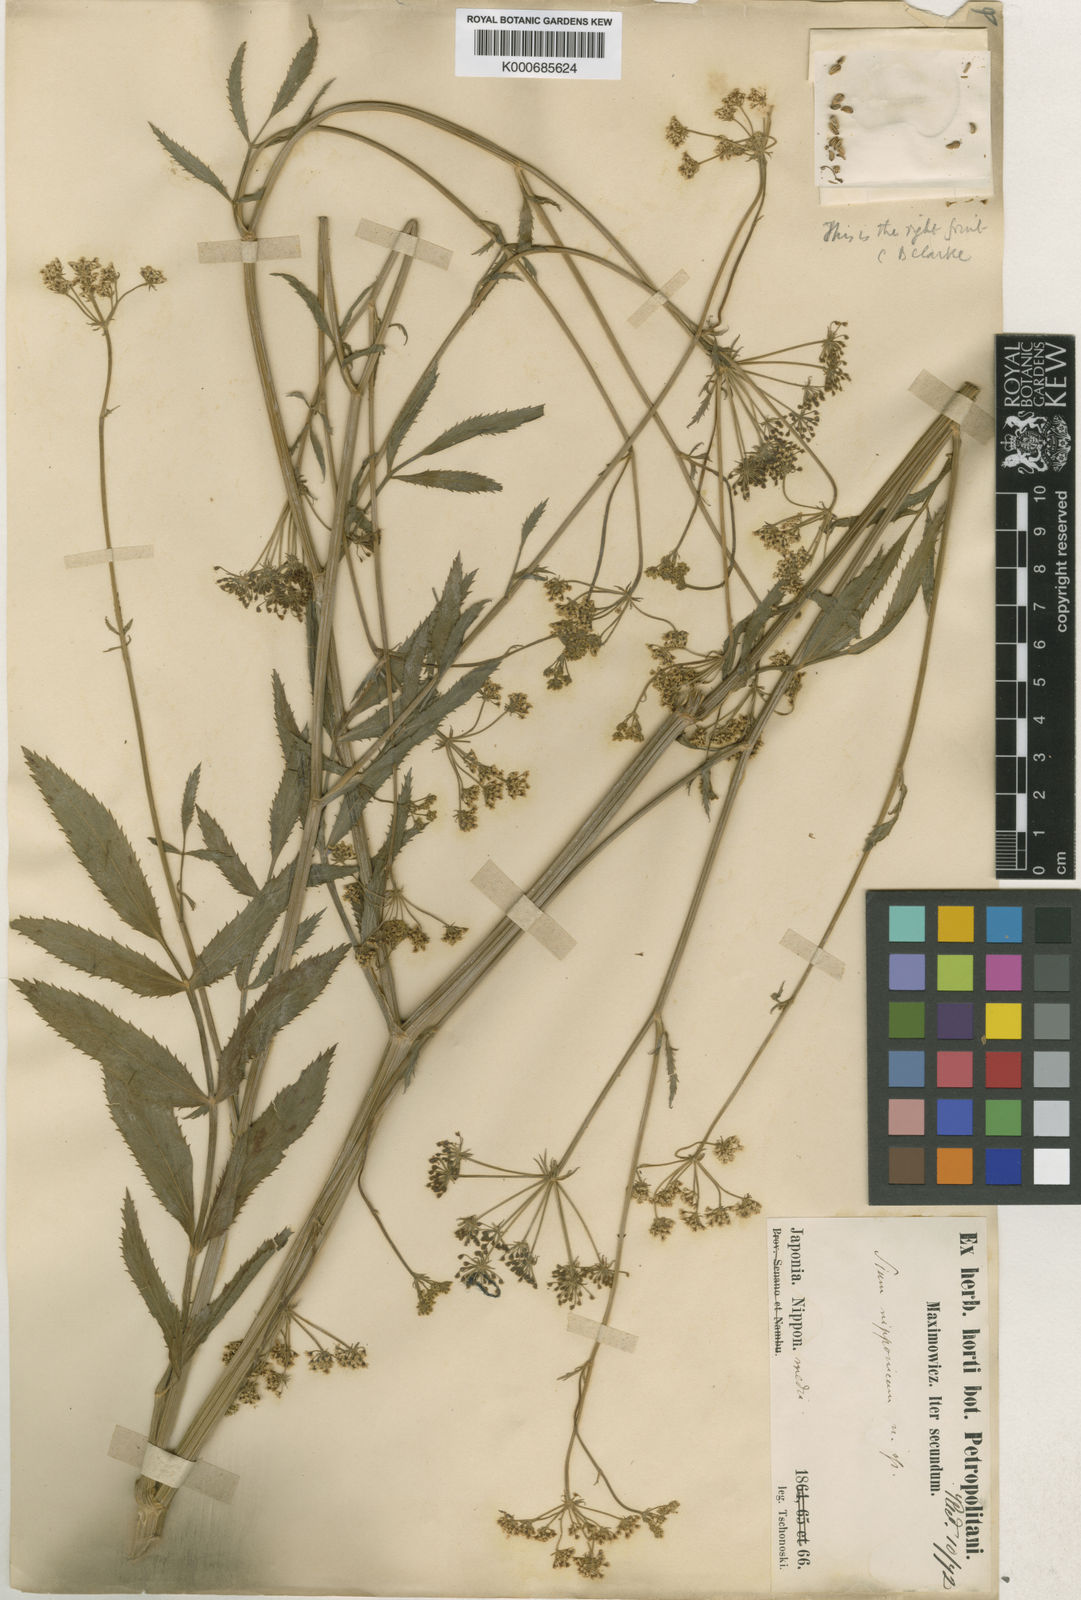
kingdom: Plantae
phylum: Tracheophyta
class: Magnoliopsida
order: Apiales
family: Apiaceae
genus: Sium
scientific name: Sium suave
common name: Hemlock water-parsnip
